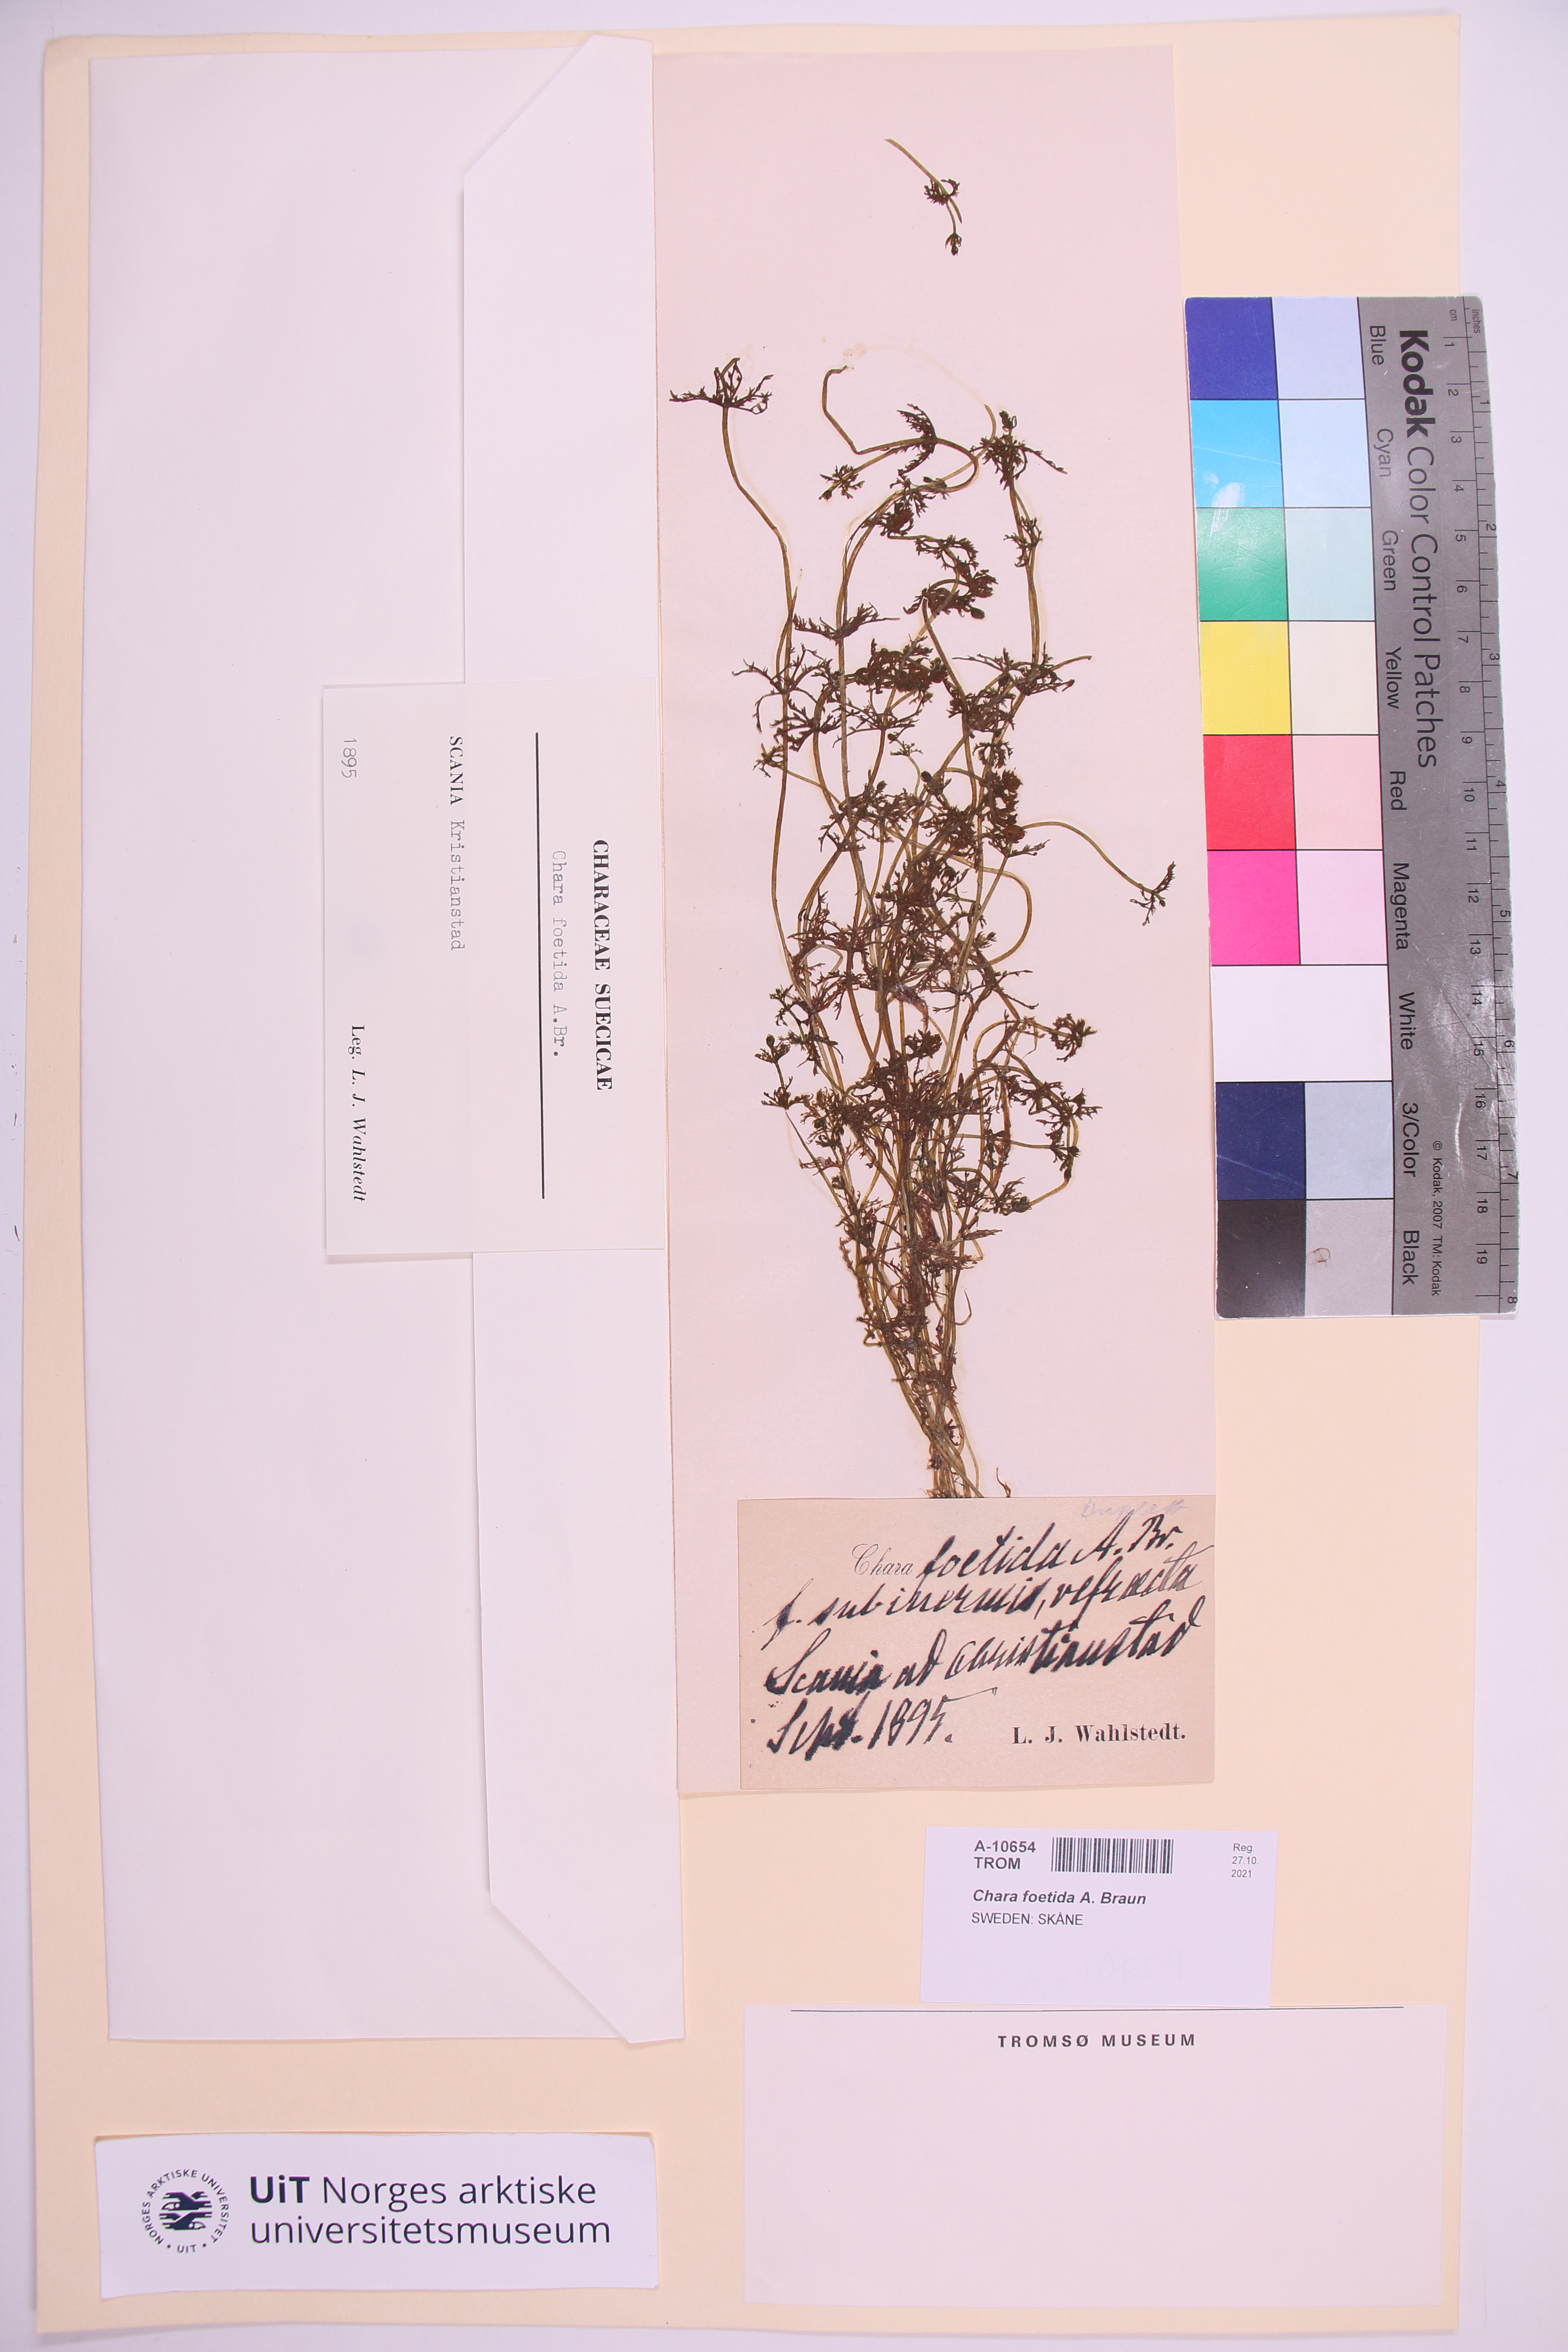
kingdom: Plantae
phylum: Charophyta
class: Charophyceae
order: Charales
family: Characeae
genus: Chara
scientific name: Chara vulgaris
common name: Common stonewort
